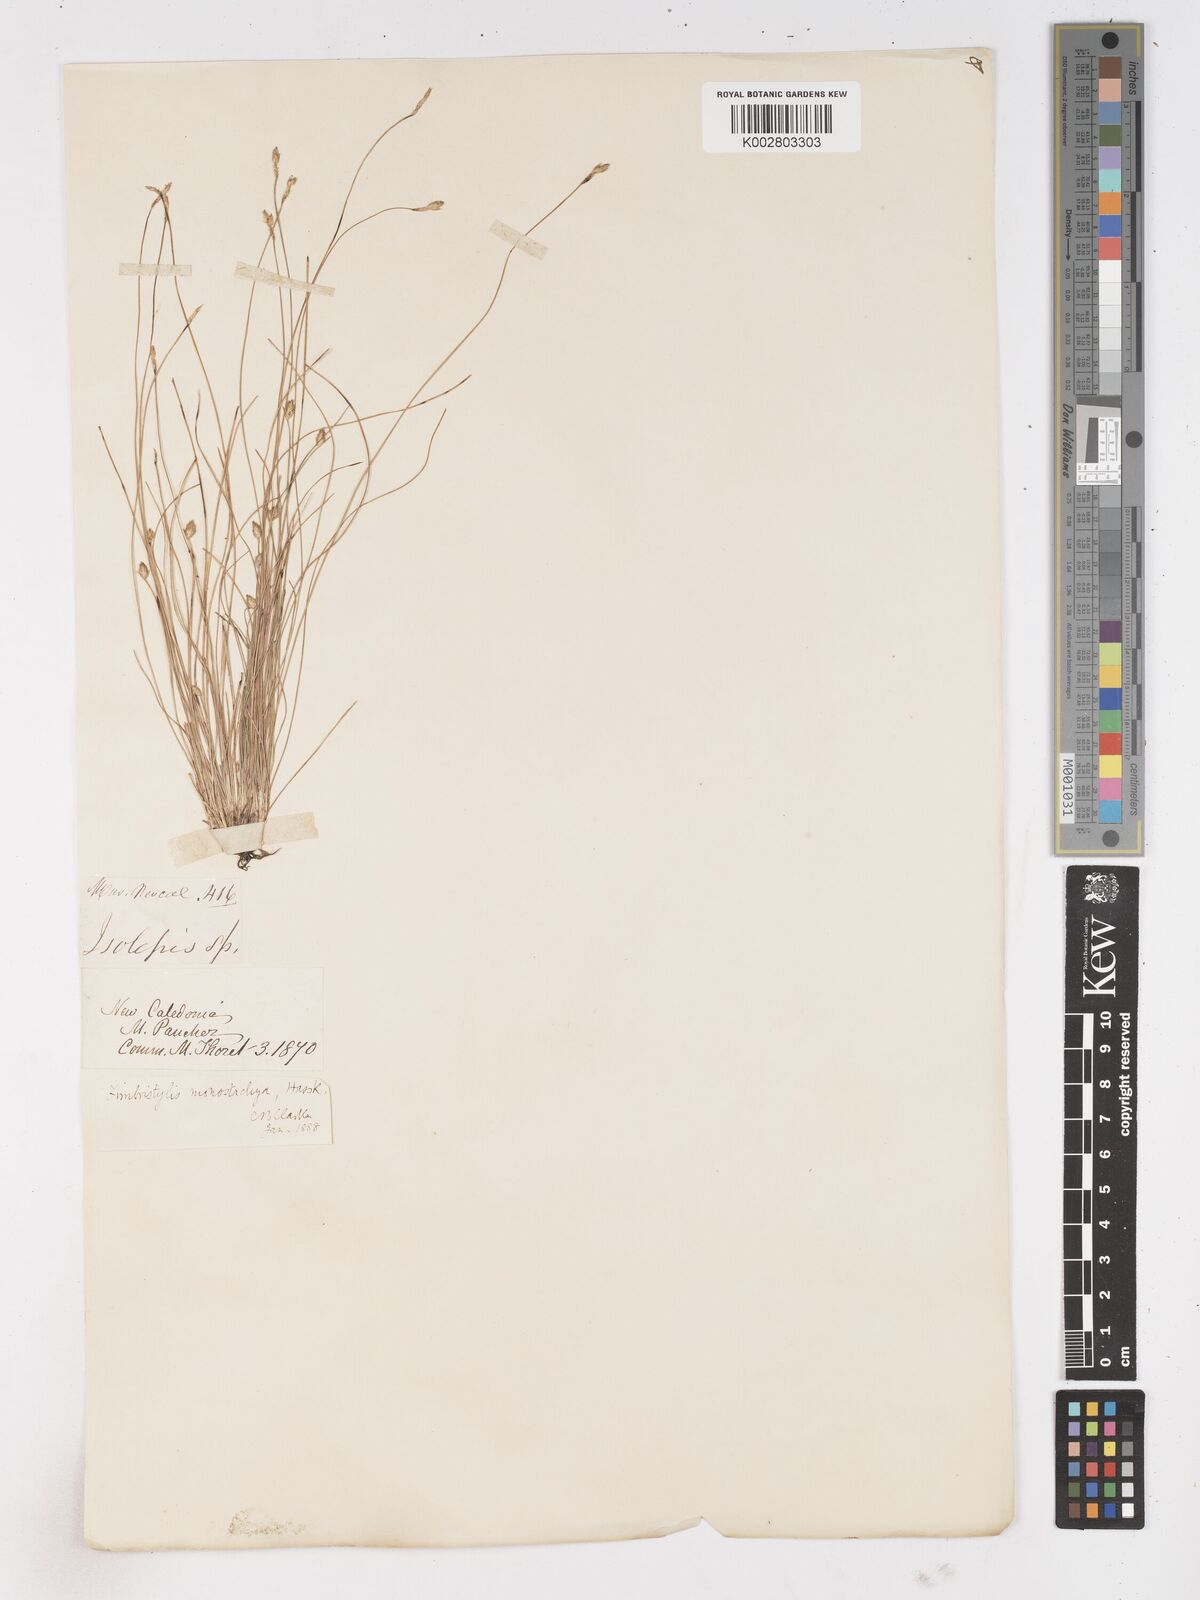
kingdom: Plantae
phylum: Tracheophyta
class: Liliopsida
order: Poales
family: Cyperaceae
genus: Abildgaardia
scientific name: Abildgaardia ovata
